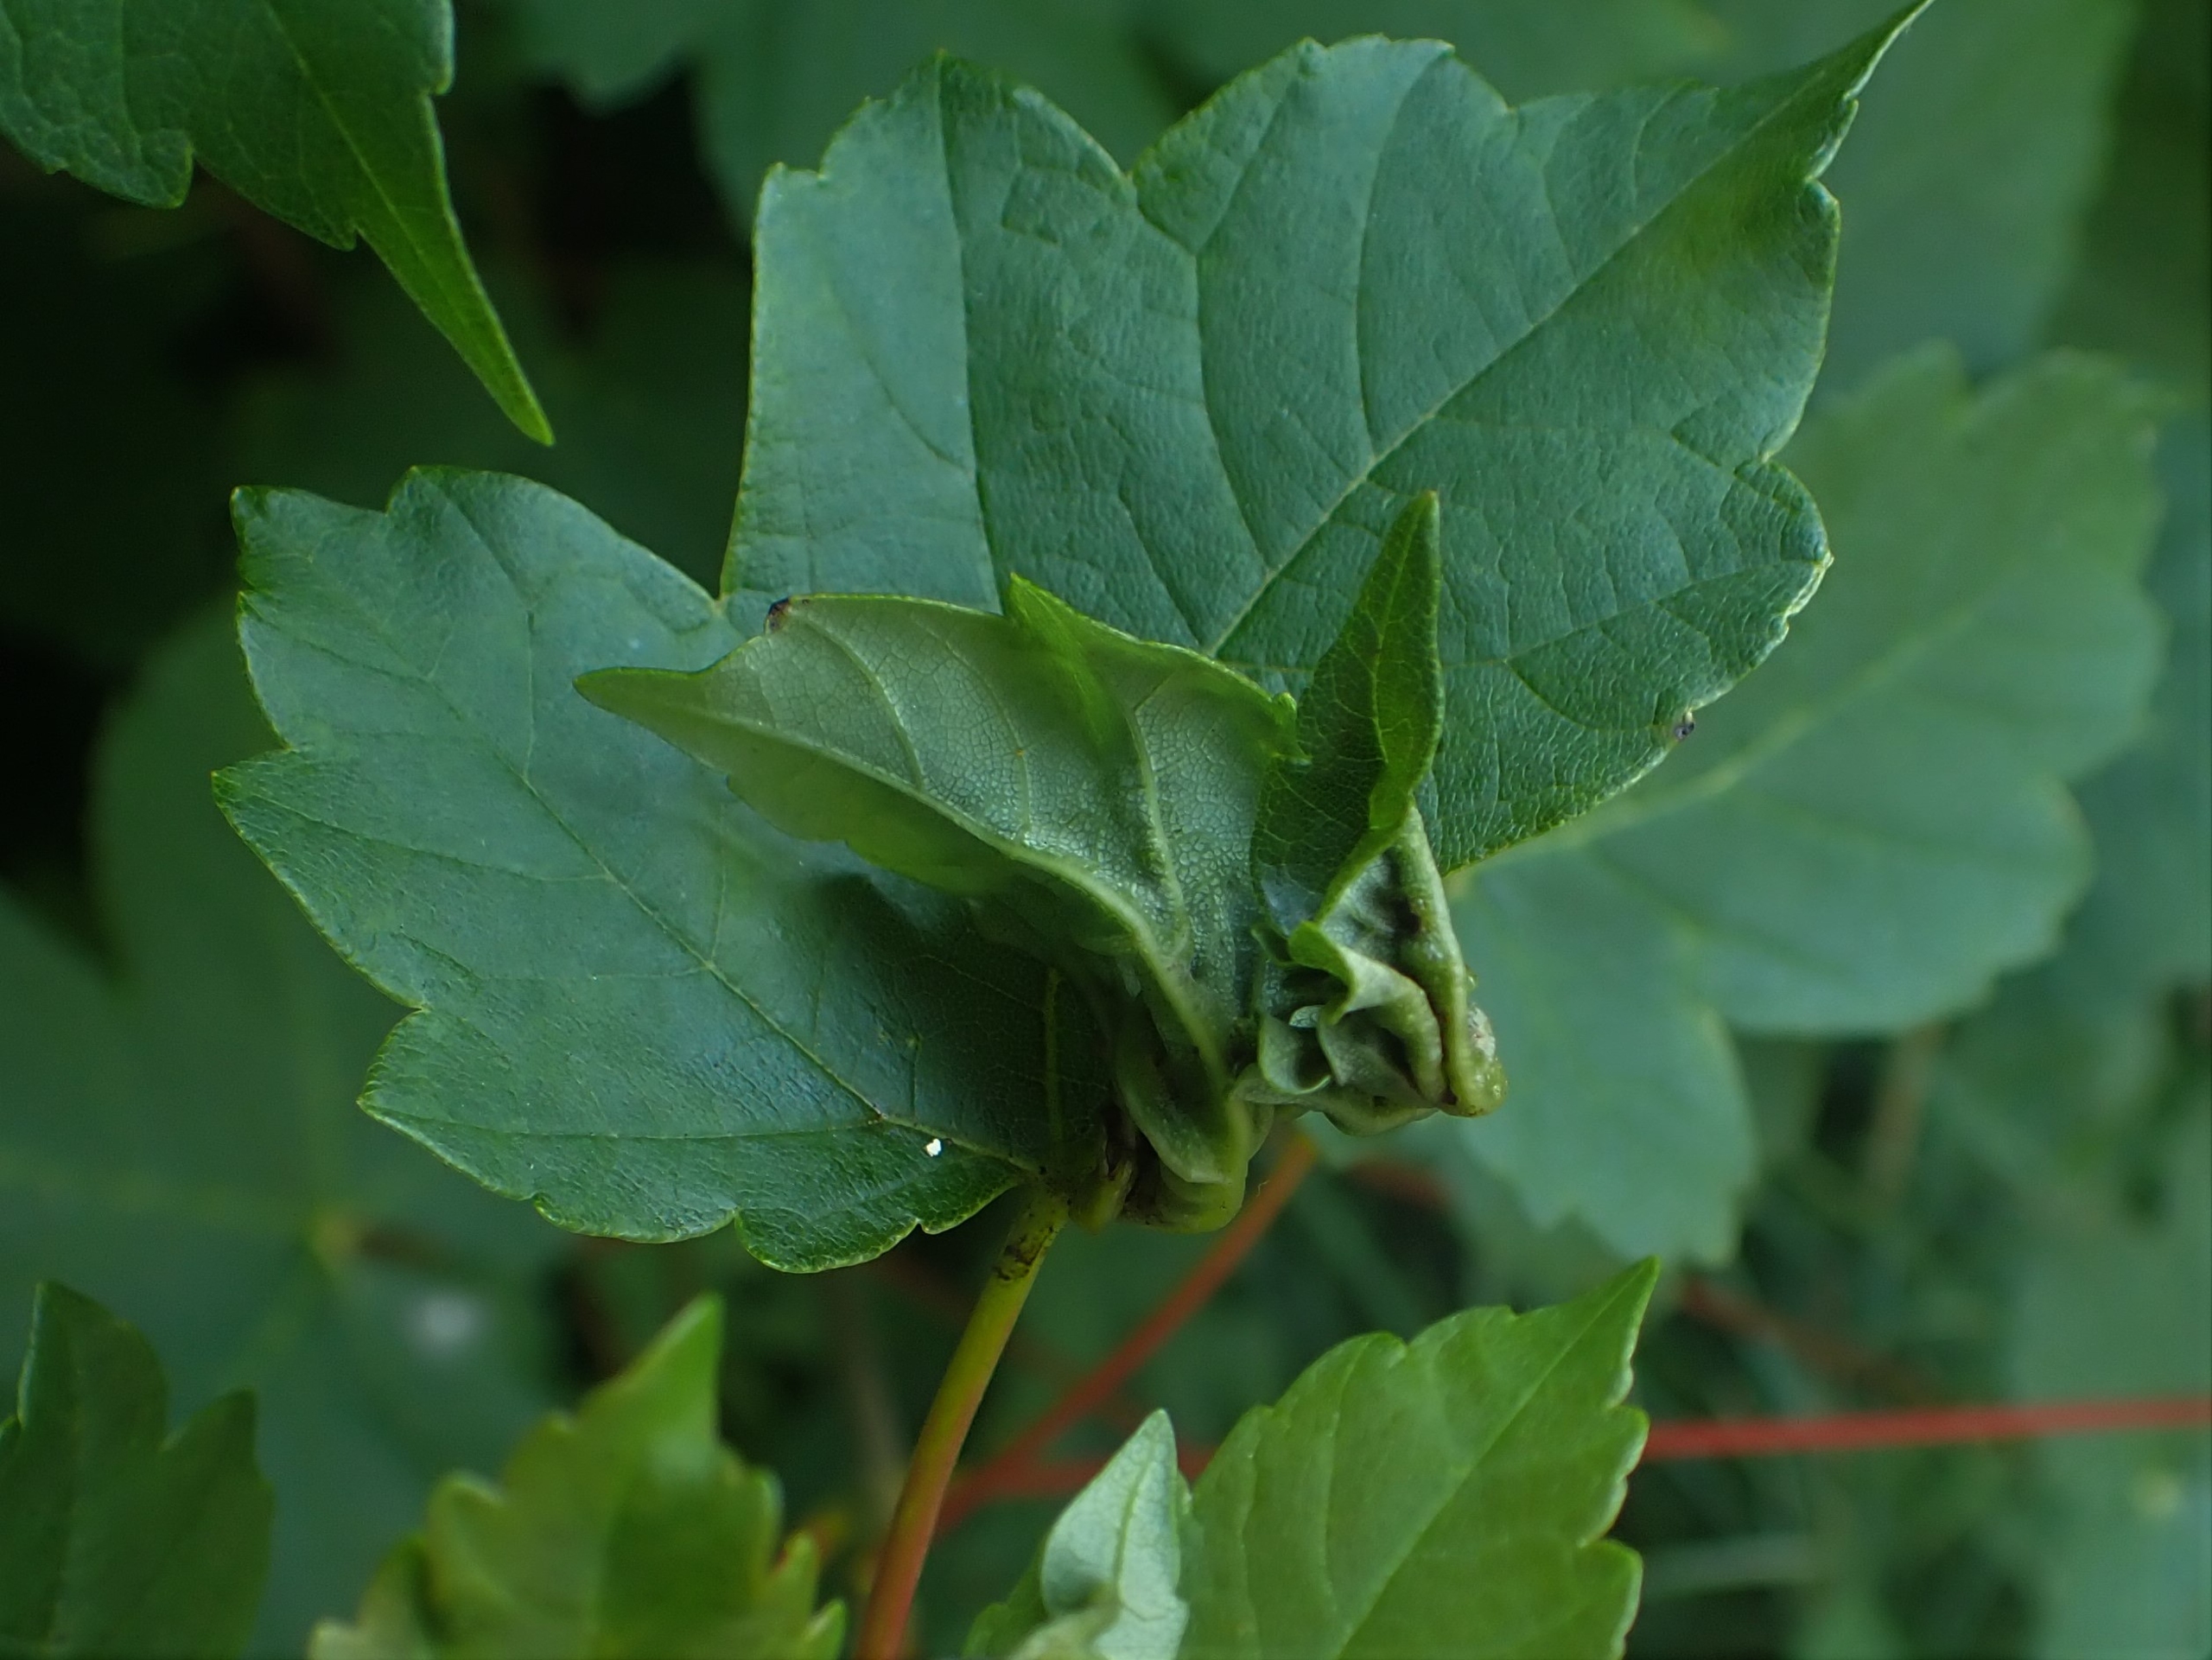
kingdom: Animalia
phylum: Arthropoda
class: Insecta
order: Diptera
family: Cecidomyiidae
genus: Dasineura
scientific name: Dasineura irregularis
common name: Ahornkrusegalmyg
